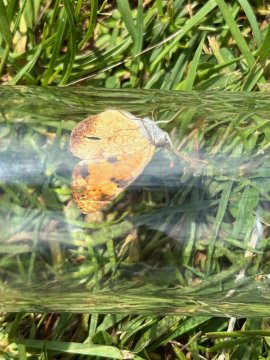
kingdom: Animalia
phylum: Arthropoda
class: Insecta
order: Lepidoptera
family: Nymphalidae
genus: Phyciodes
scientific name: Phyciodes tharos
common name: Pearl Crescent
